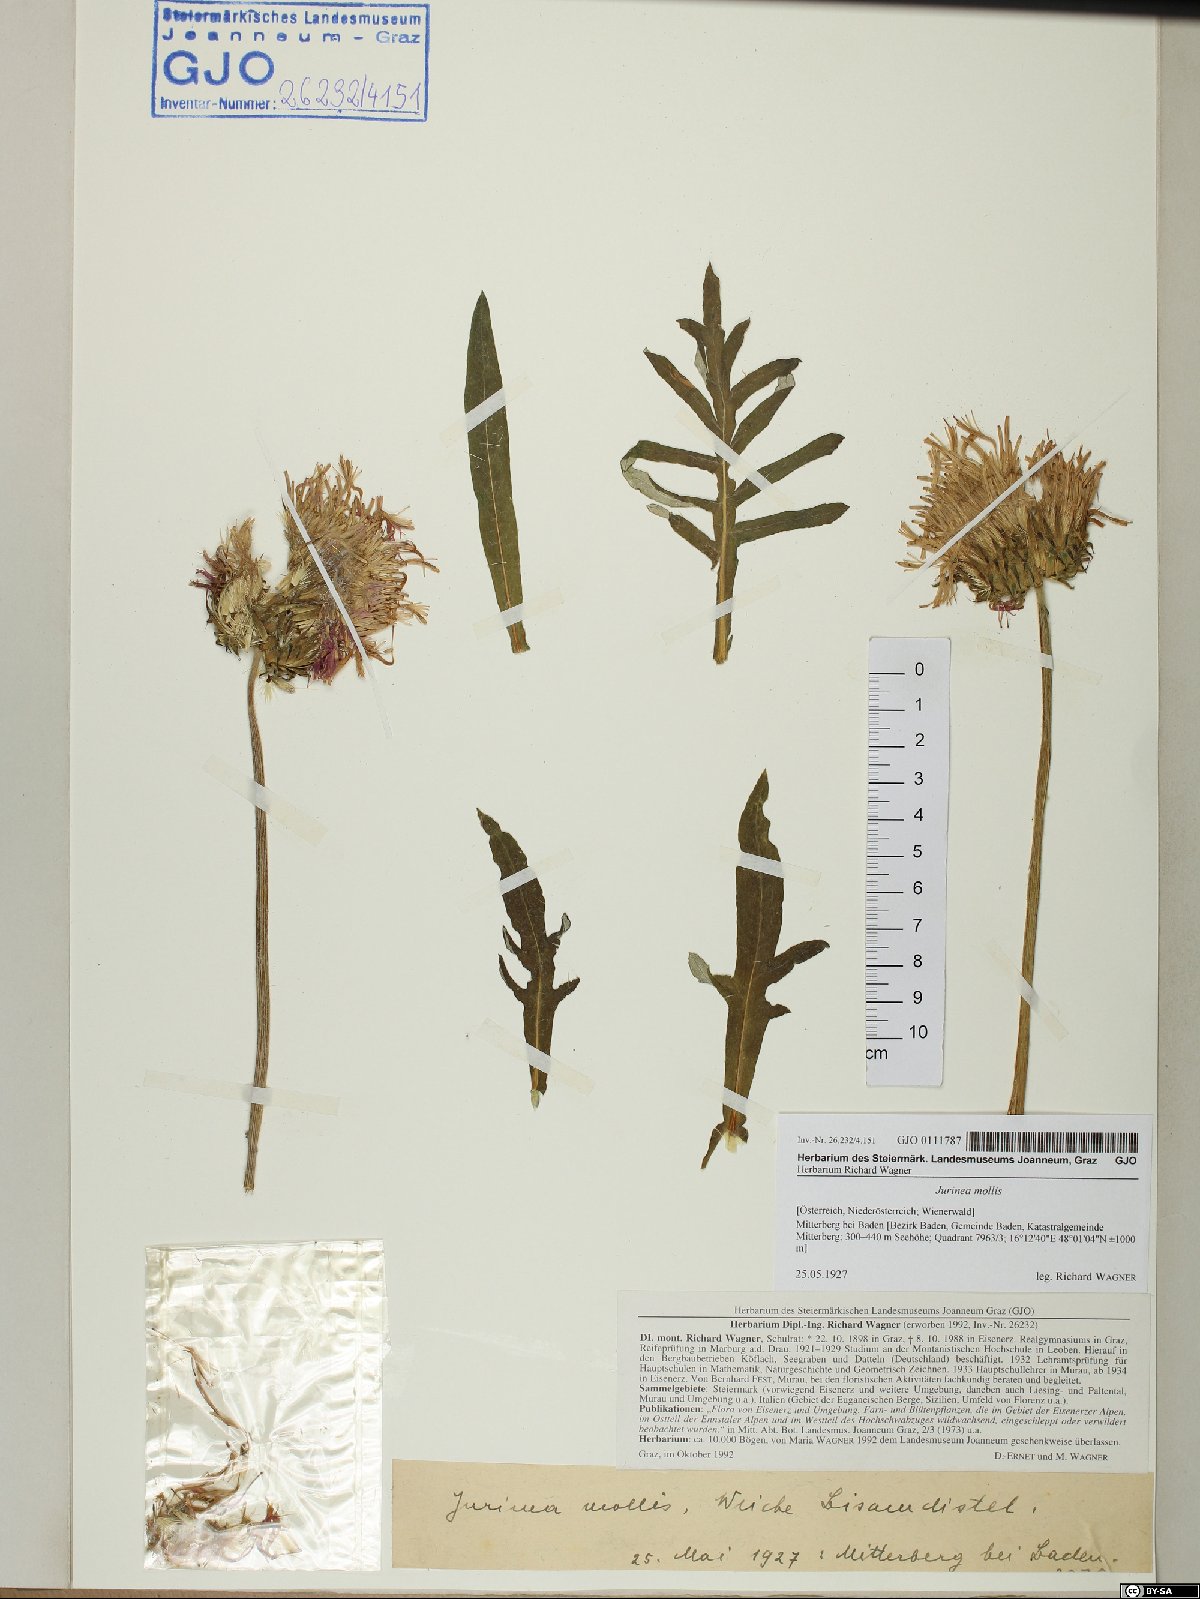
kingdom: Plantae
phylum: Tracheophyta
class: Magnoliopsida
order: Asterales
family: Asteraceae
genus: Jurinea
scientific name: Jurinea mollis
